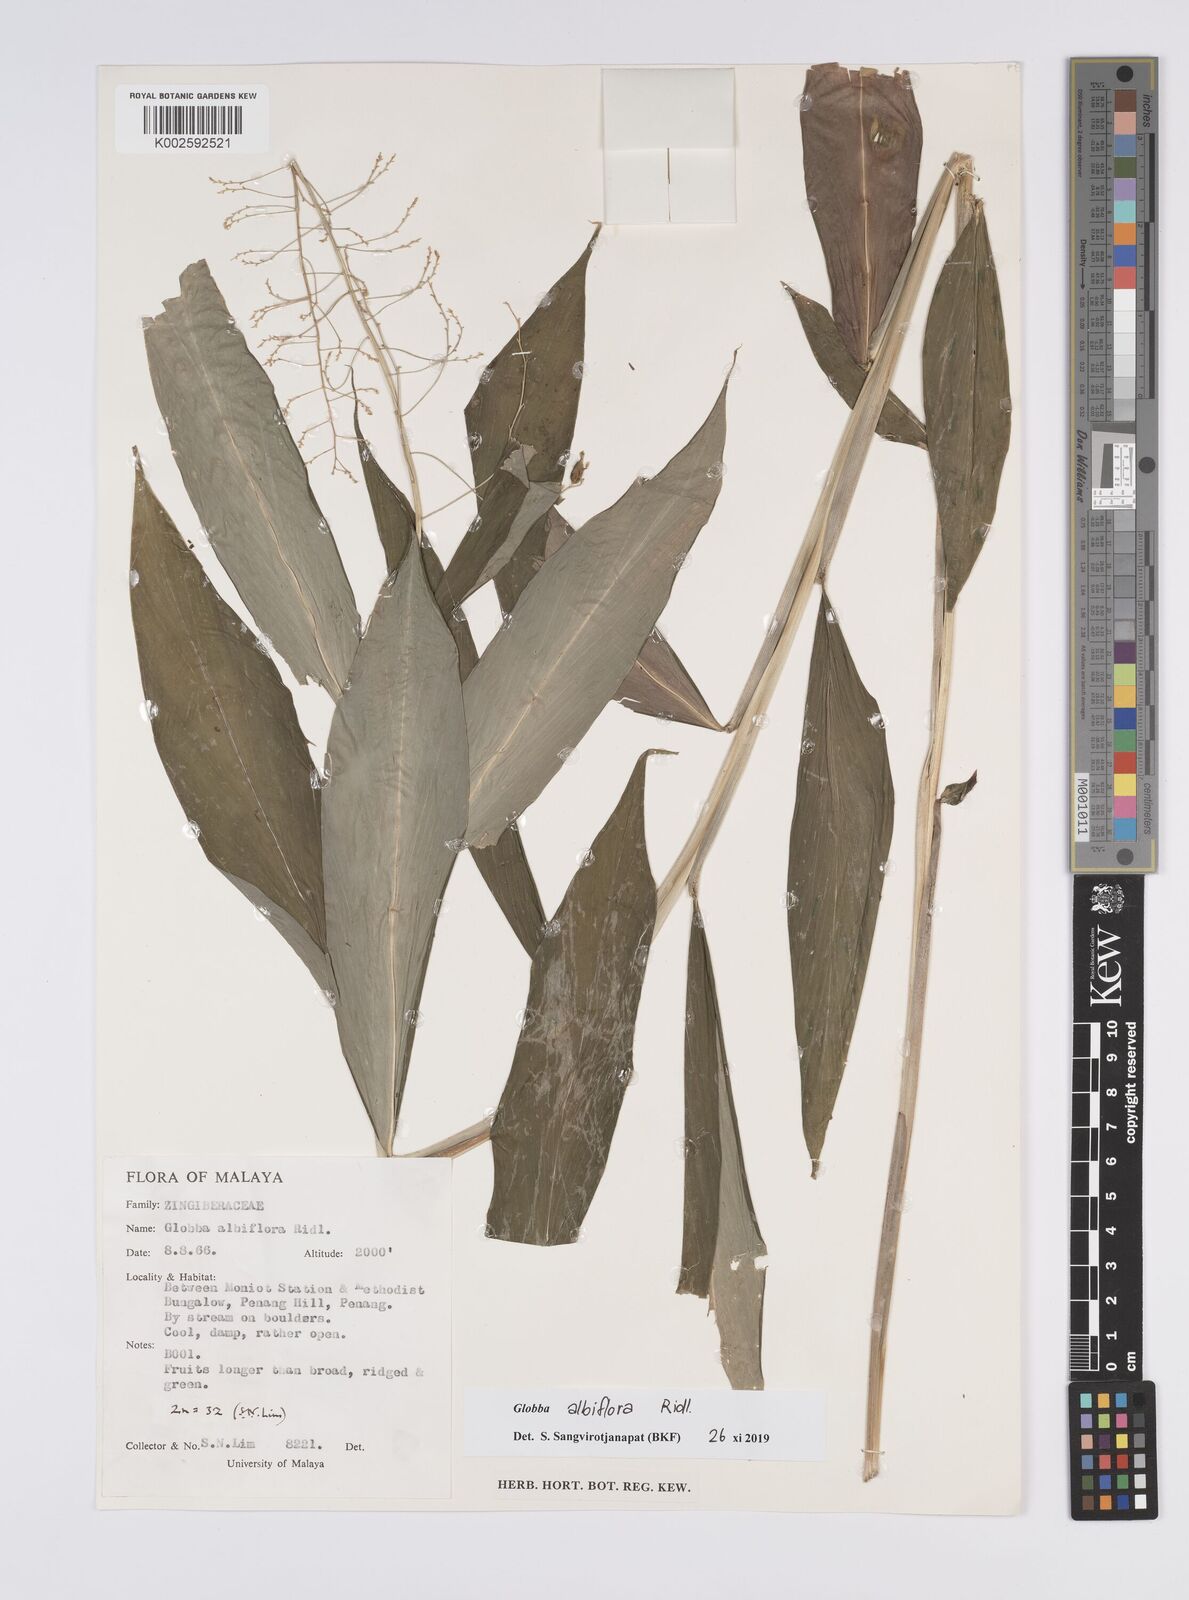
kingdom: Plantae
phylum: Tracheophyta
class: Liliopsida
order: Zingiberales
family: Zingiberaceae
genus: Globba
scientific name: Globba albiflora
